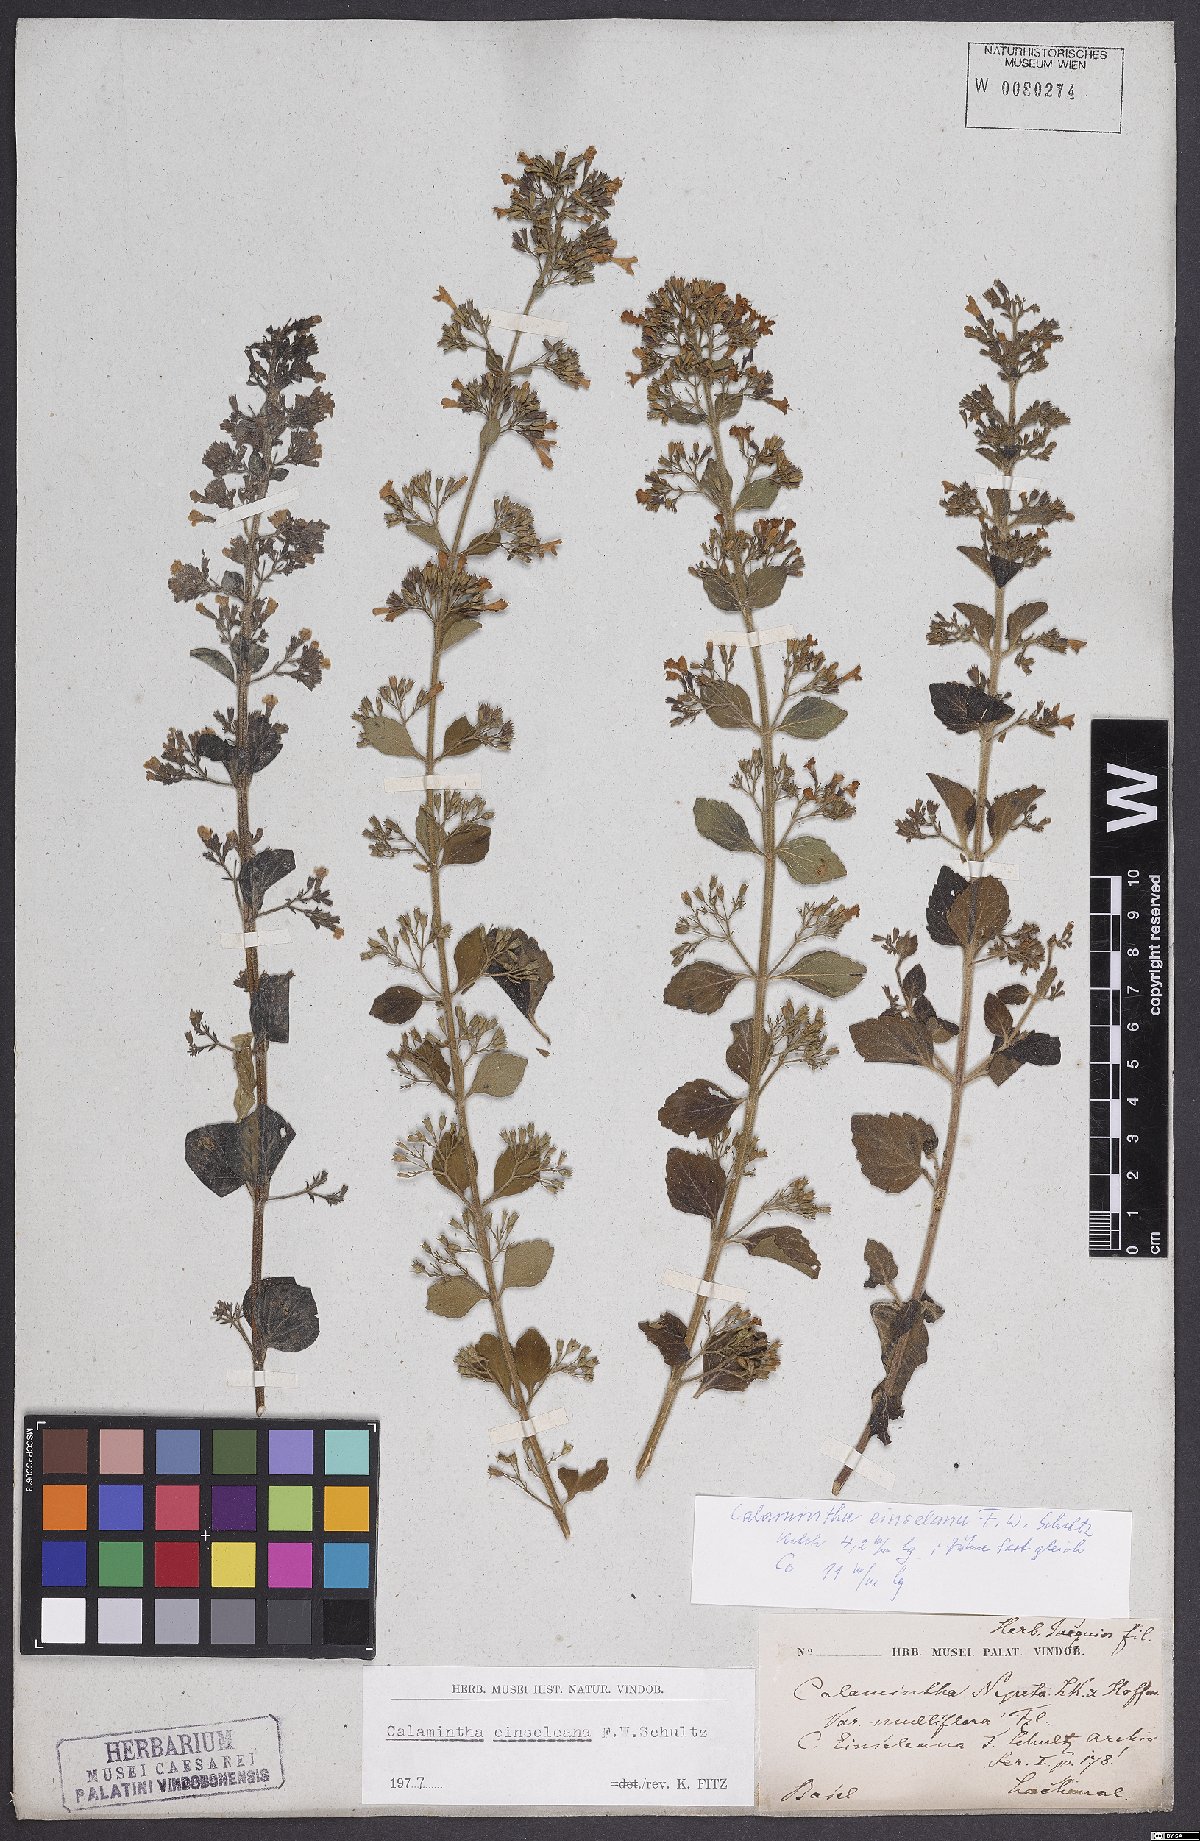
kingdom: Plantae
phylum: Tracheophyta
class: Magnoliopsida
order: Lamiales
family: Lamiaceae
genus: Clinopodium
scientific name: Clinopodium nepeta
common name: Lesser calamint
